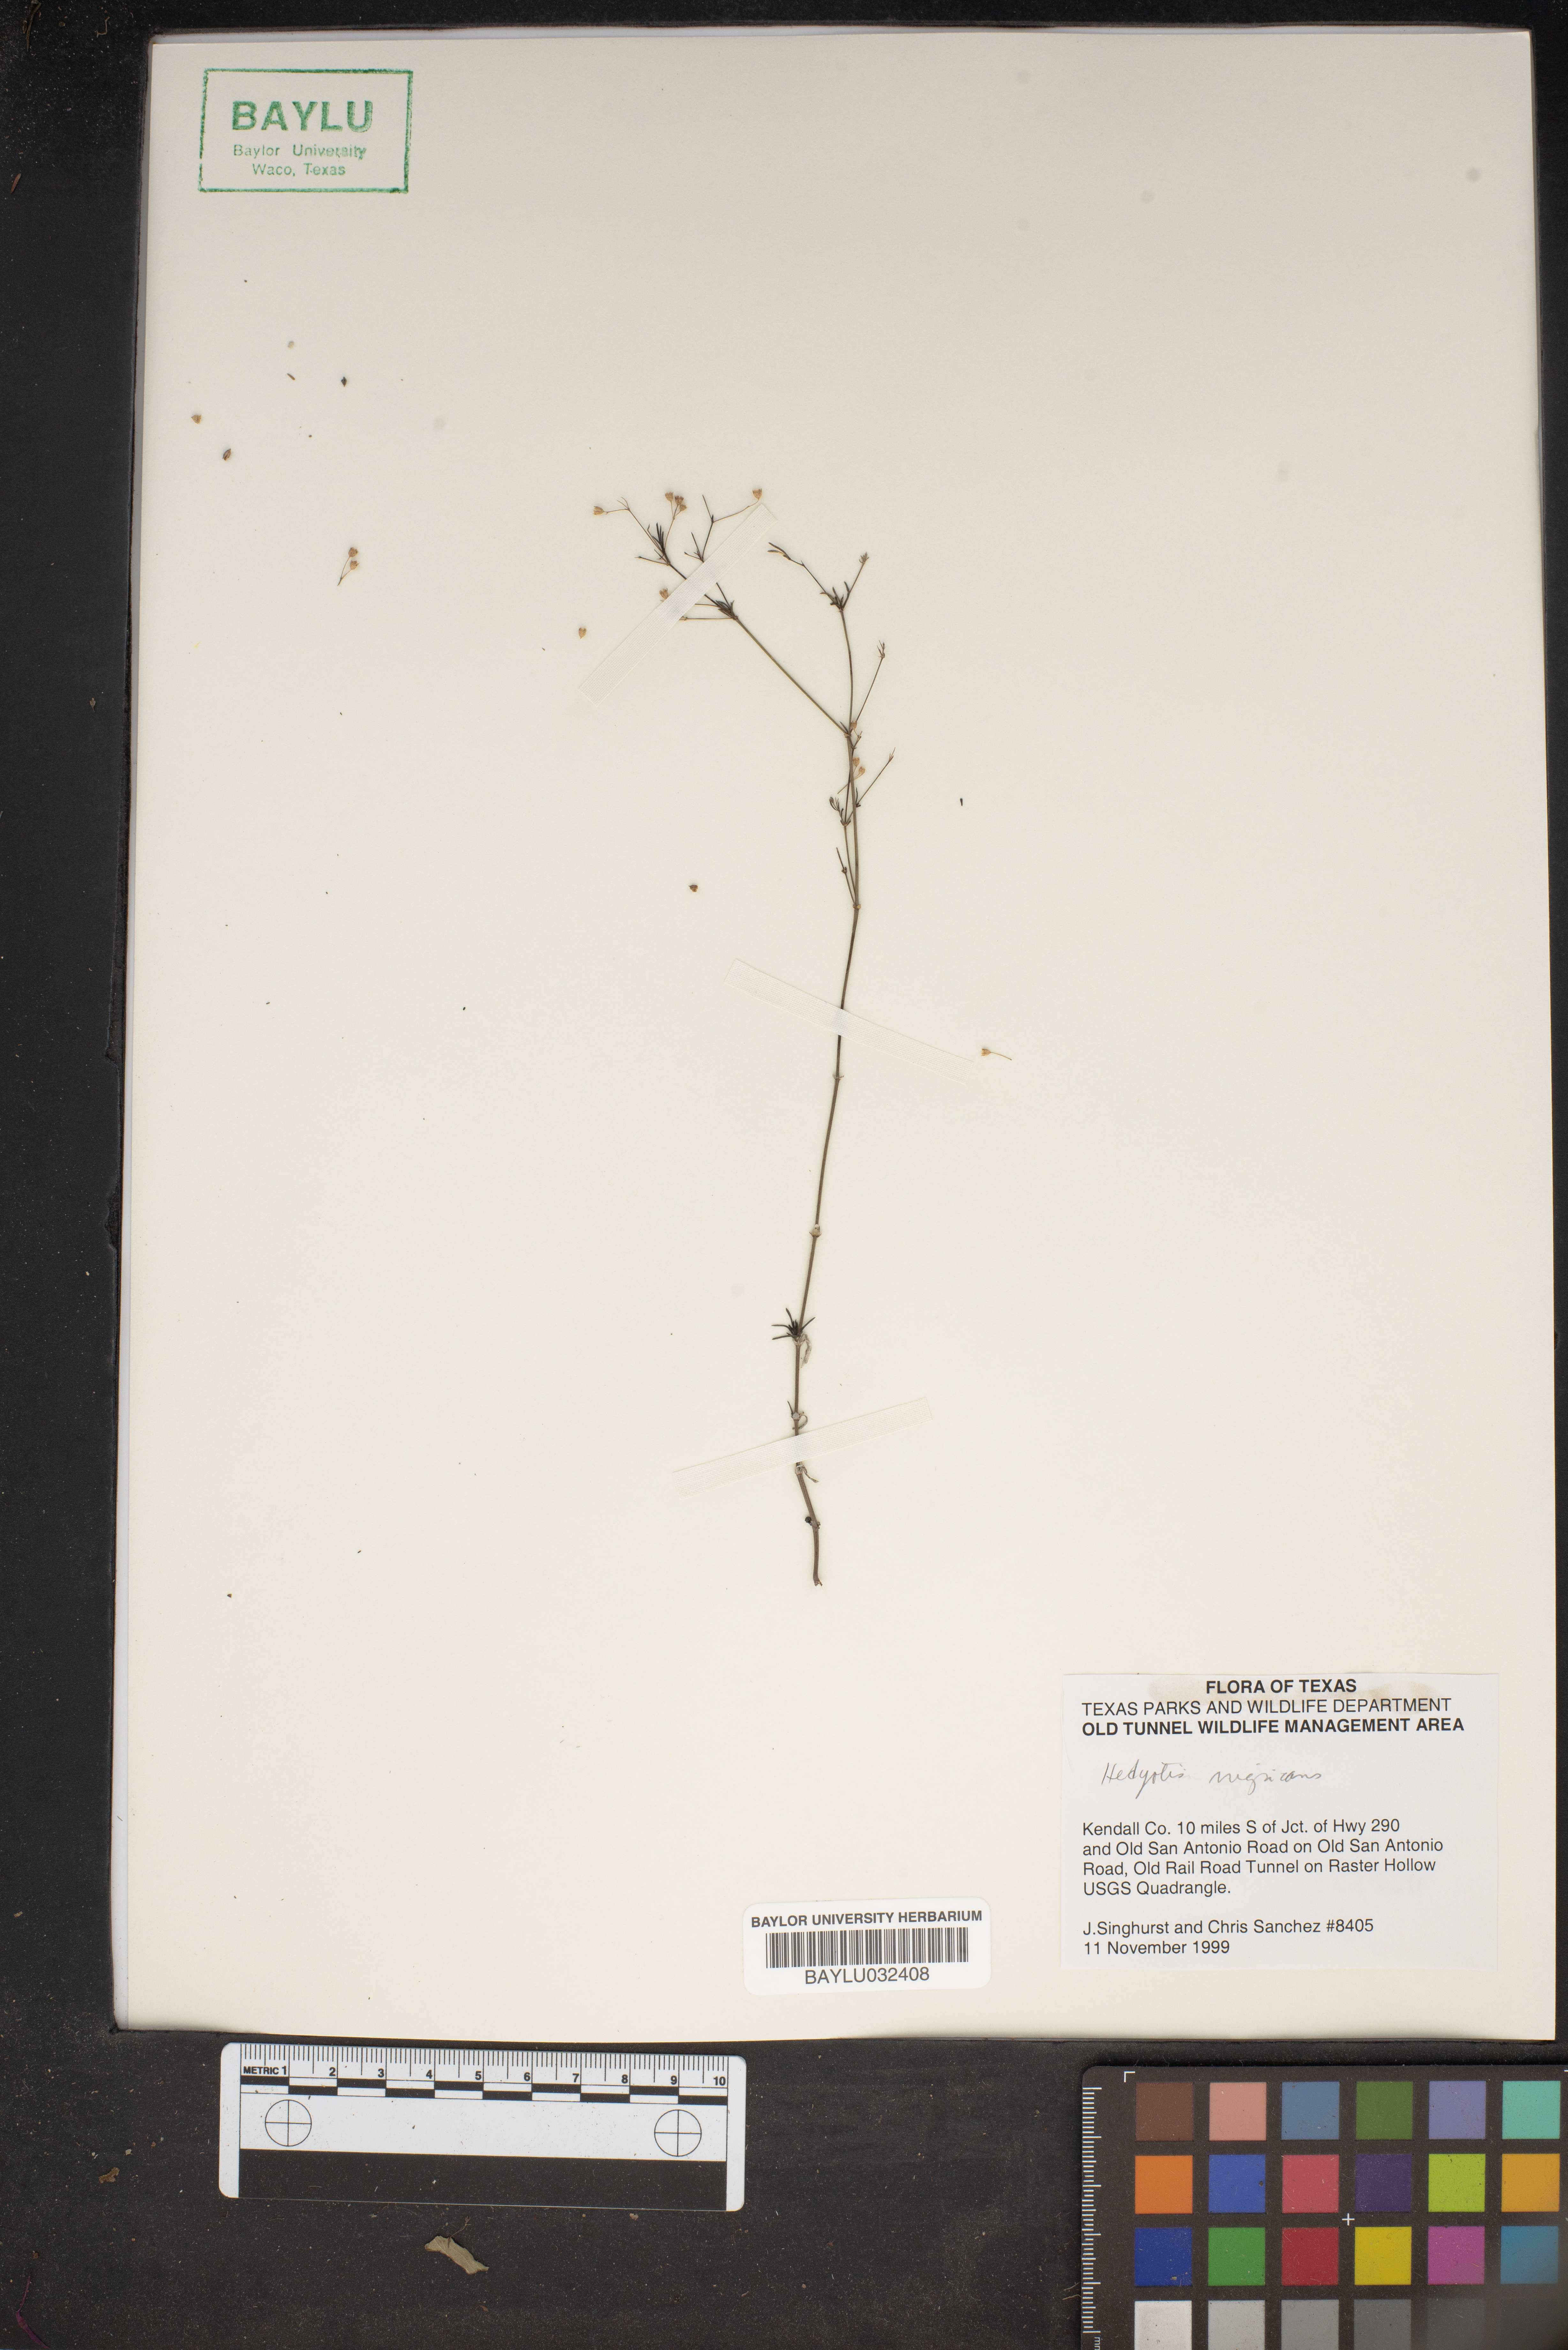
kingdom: Plantae
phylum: Tracheophyta
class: Magnoliopsida
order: Gentianales
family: Rubiaceae
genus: Stenaria
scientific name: Stenaria nigricans
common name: Diamondflowers
